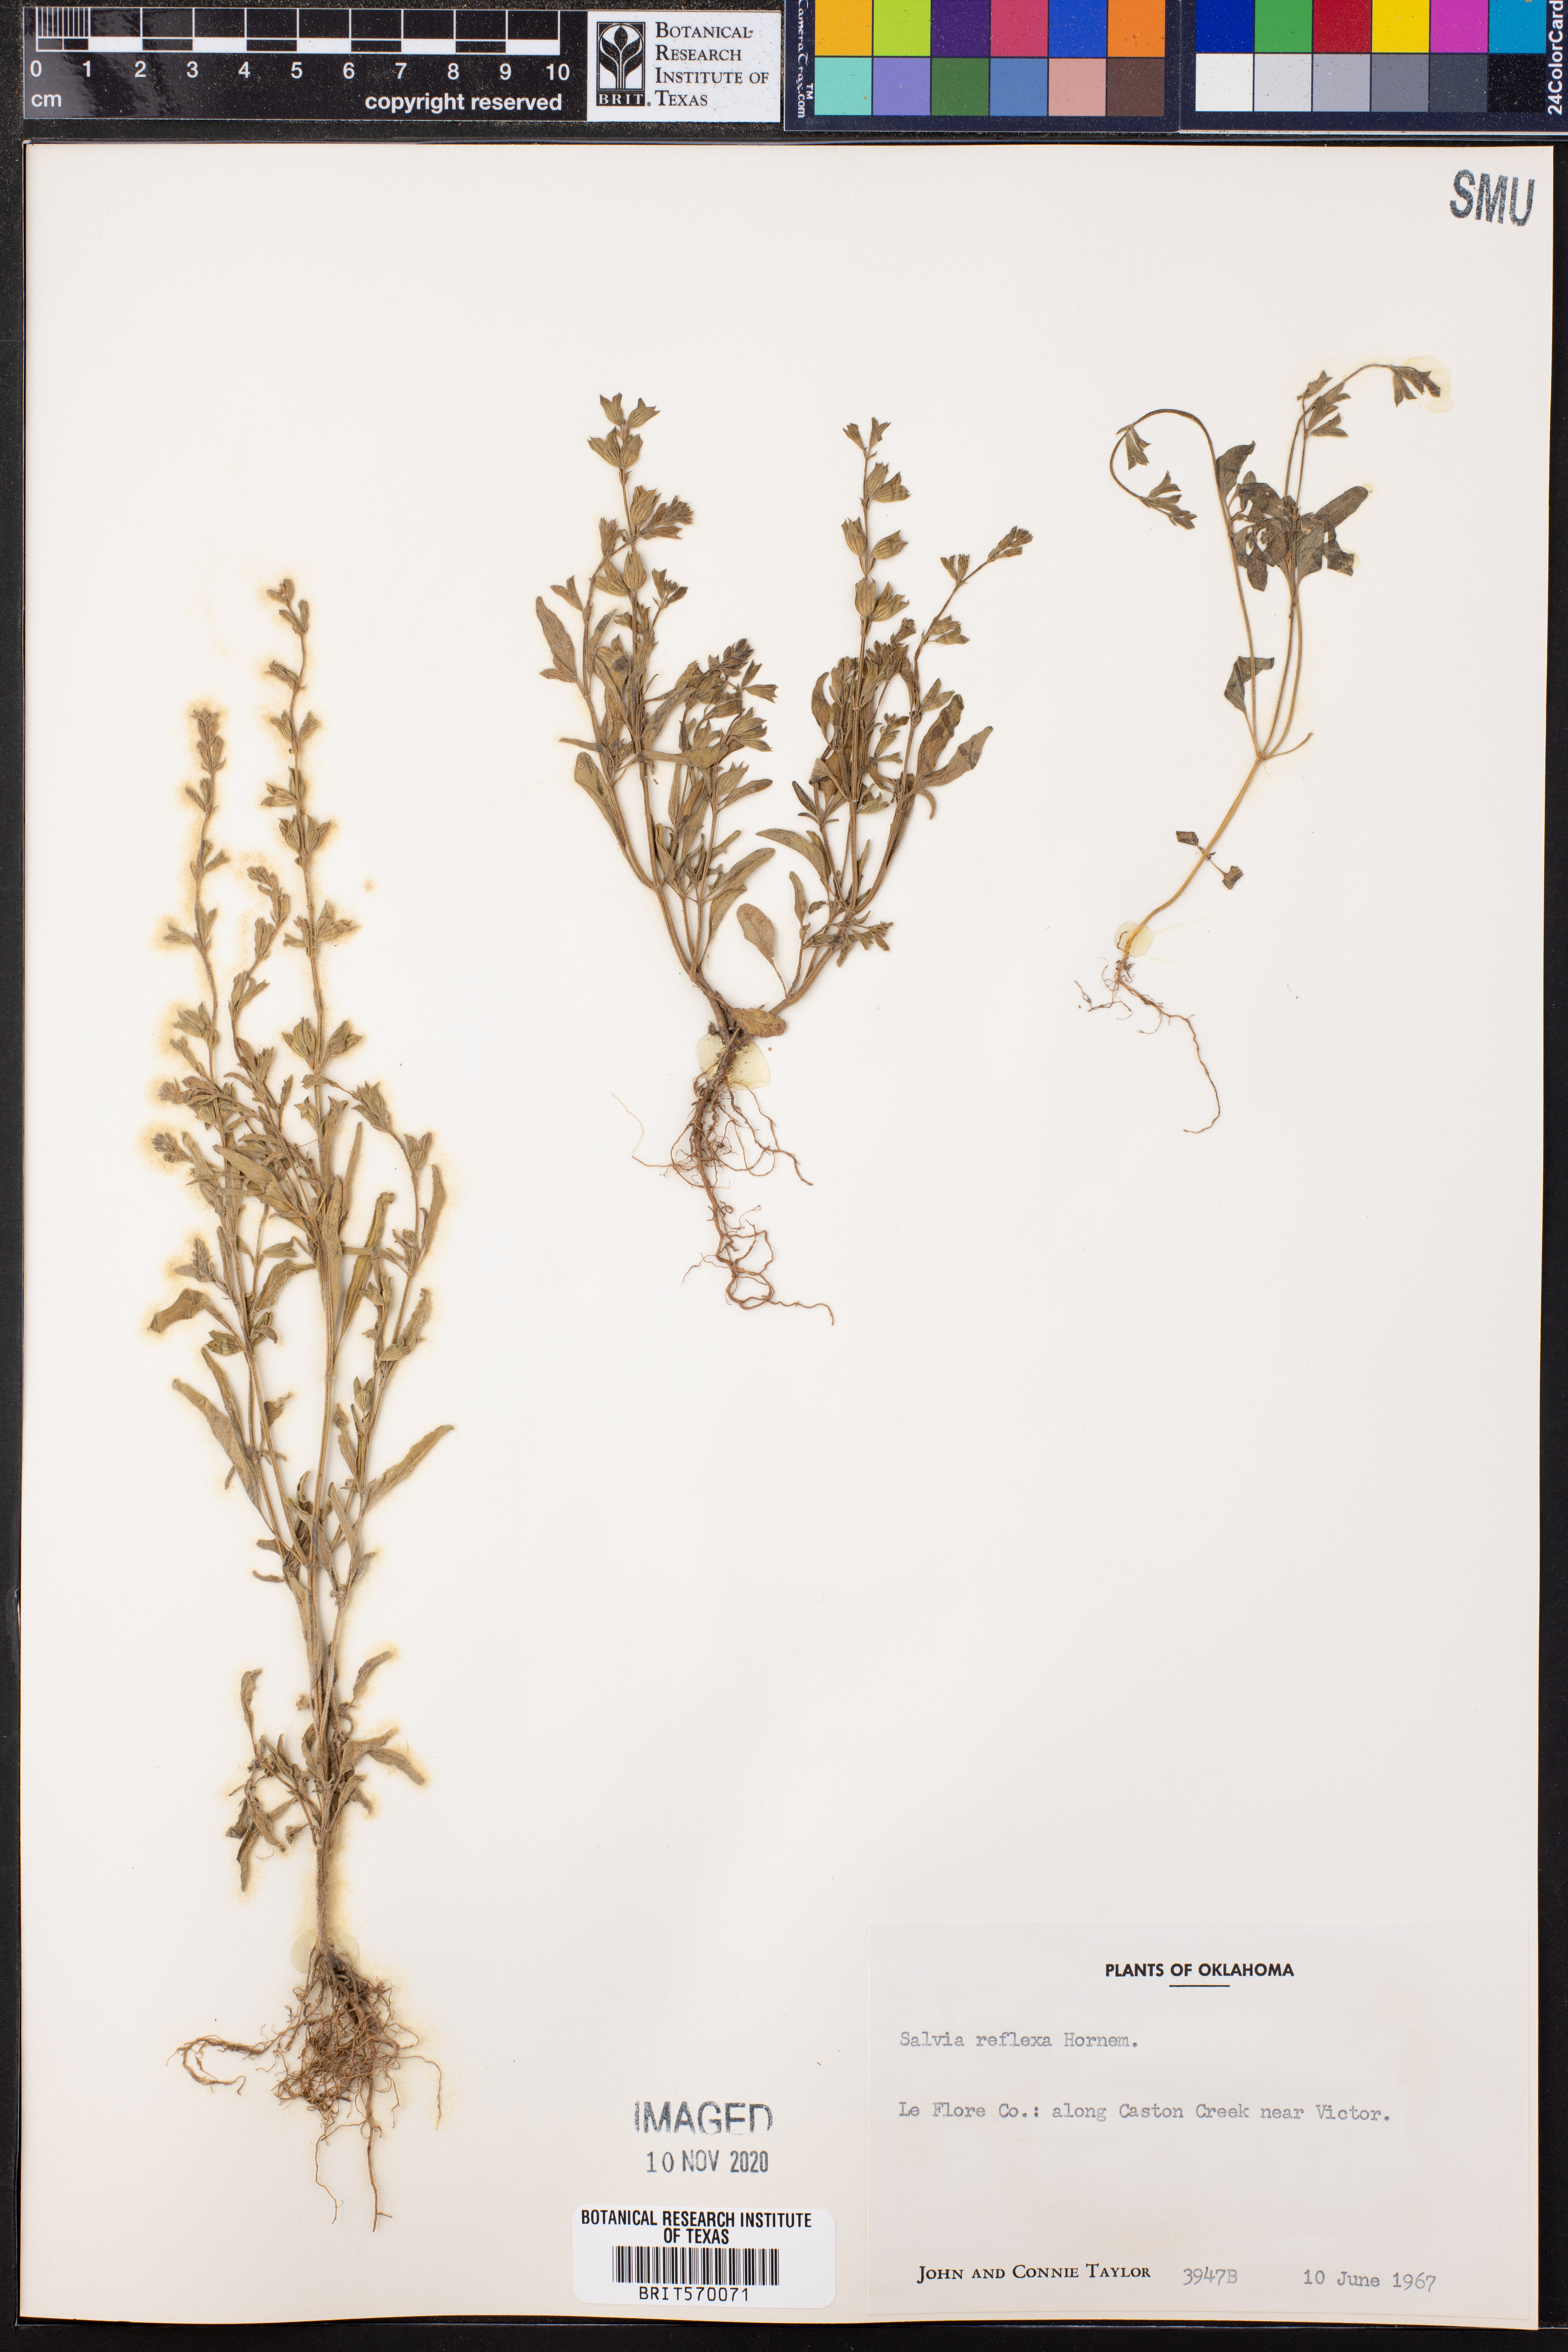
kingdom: Plantae
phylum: Tracheophyta
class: Magnoliopsida
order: Lamiales
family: Lamiaceae
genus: Salvia
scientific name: Salvia reflexa
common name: Mintweed
